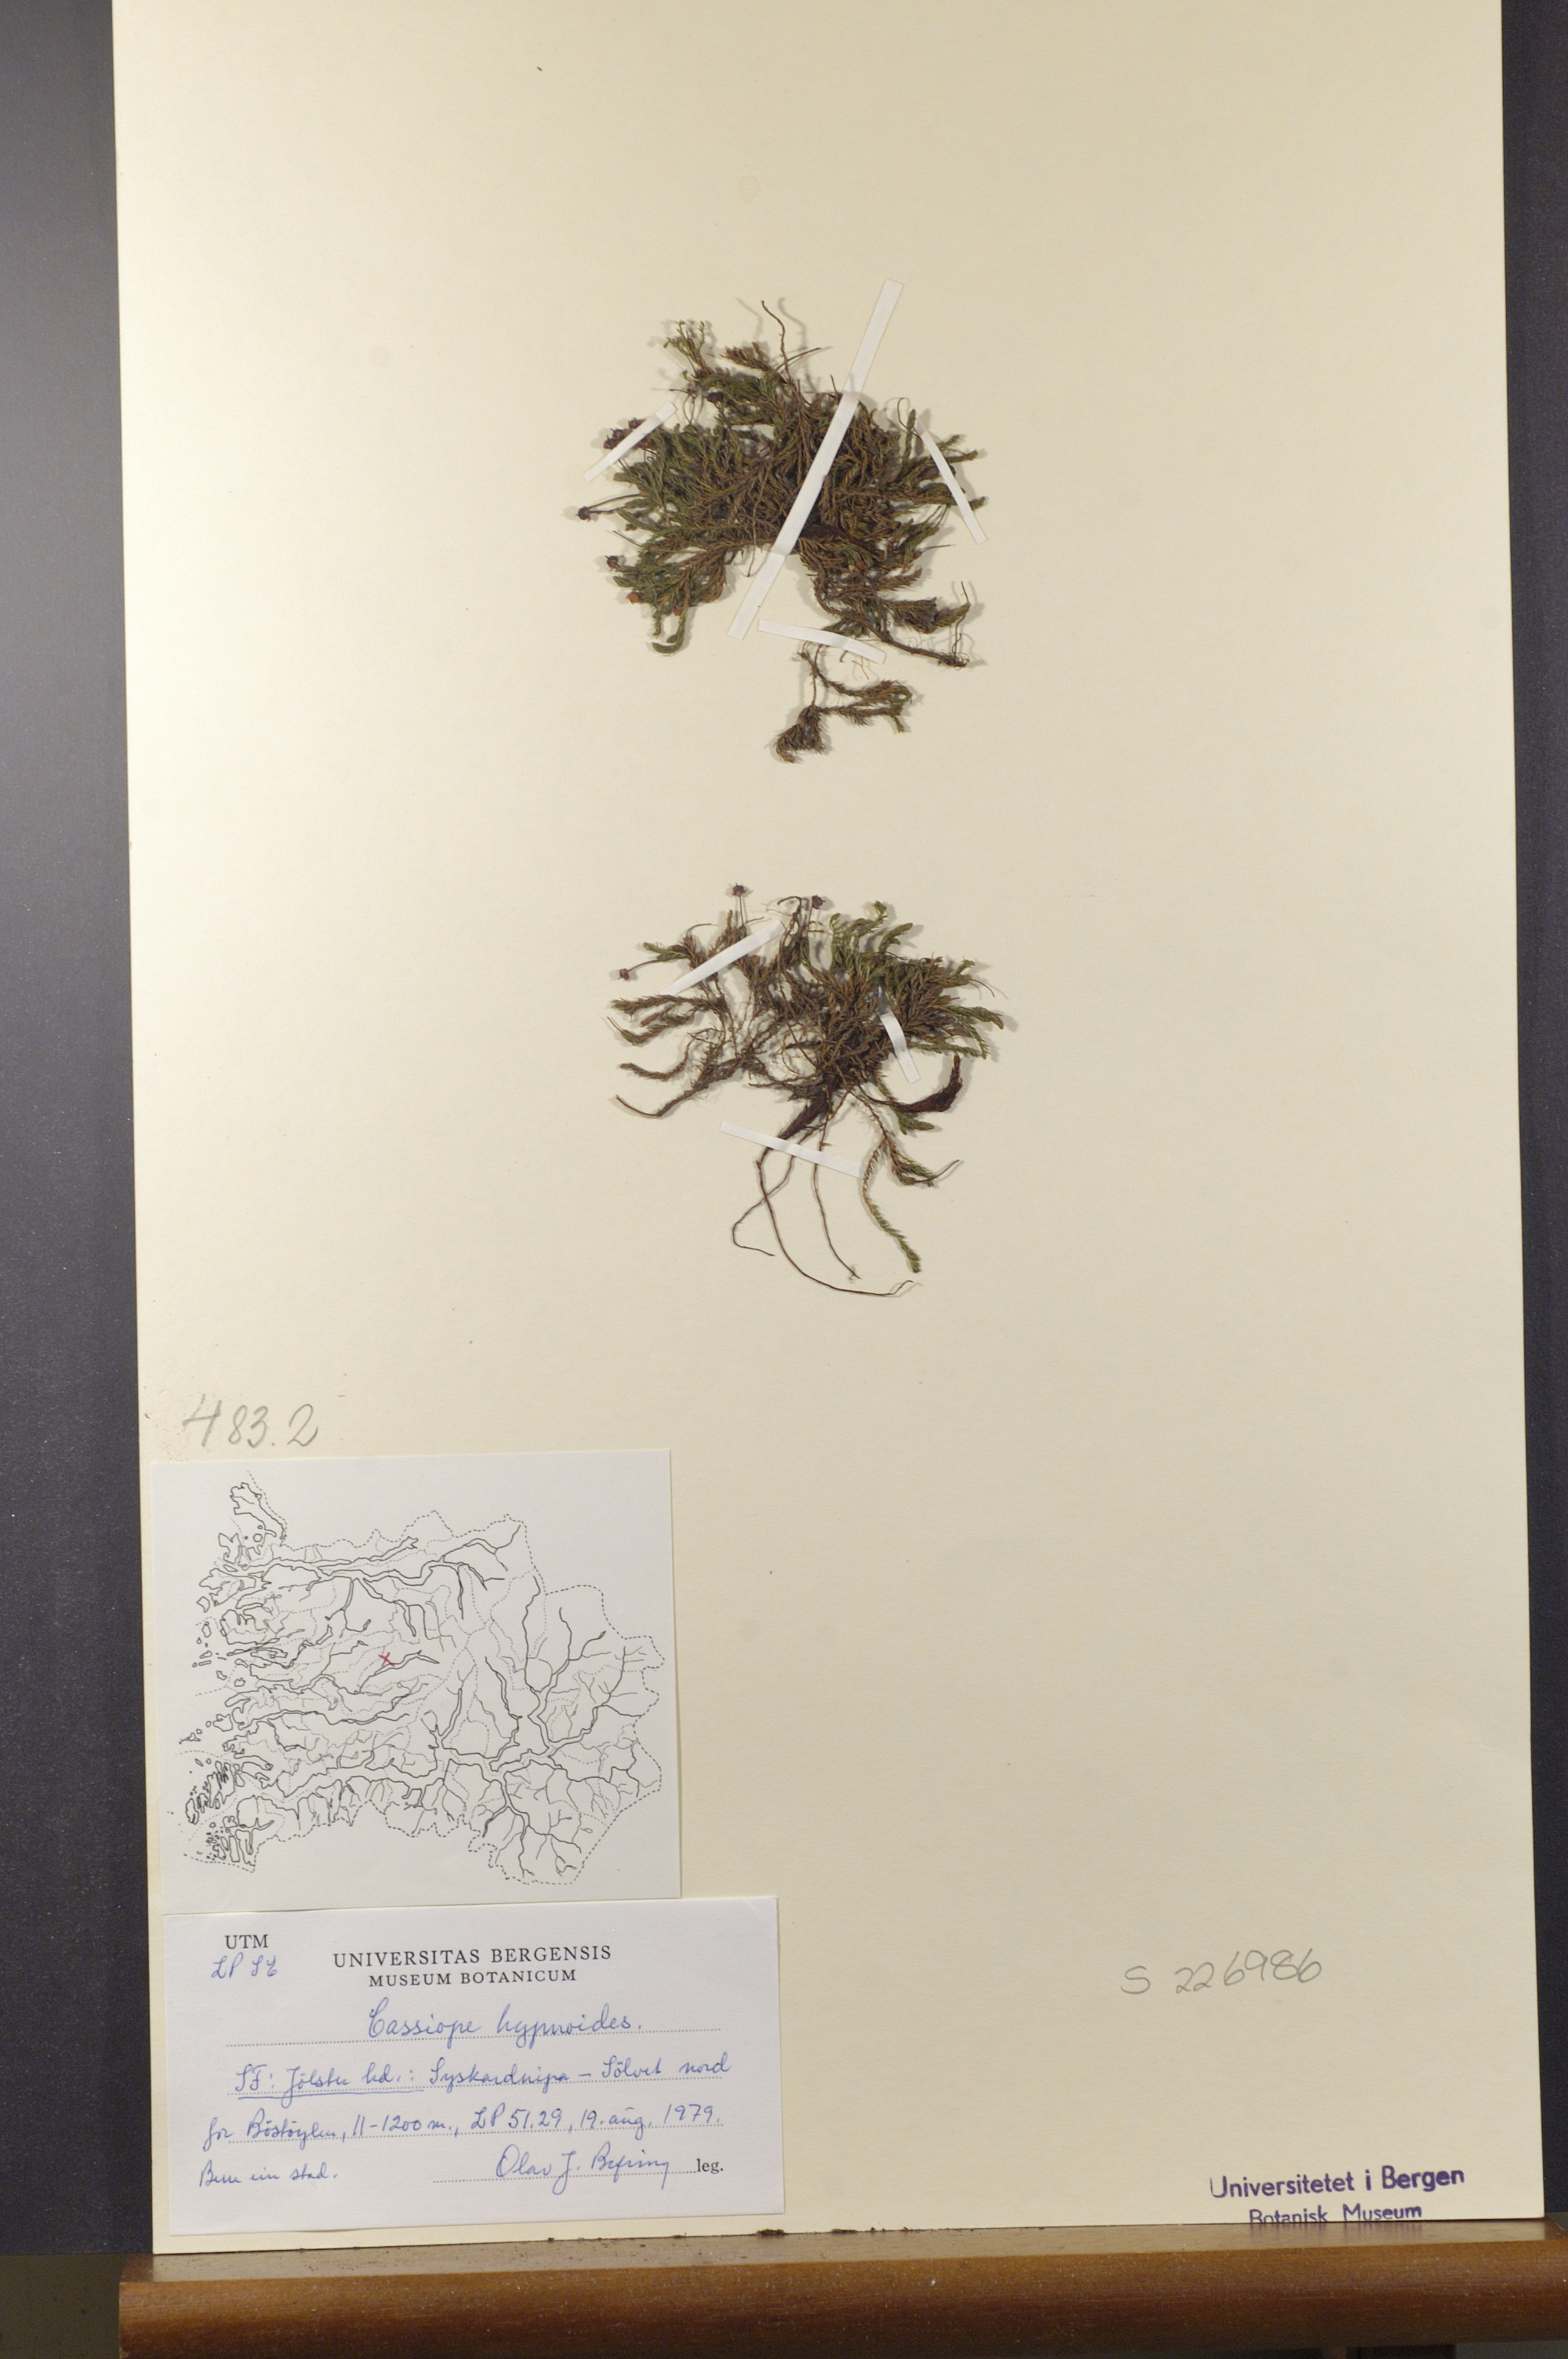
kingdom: Plantae
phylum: Tracheophyta
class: Magnoliopsida
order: Ericales
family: Ericaceae
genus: Harrimanella
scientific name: Harrimanella hypnoides
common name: Moss bell heather
